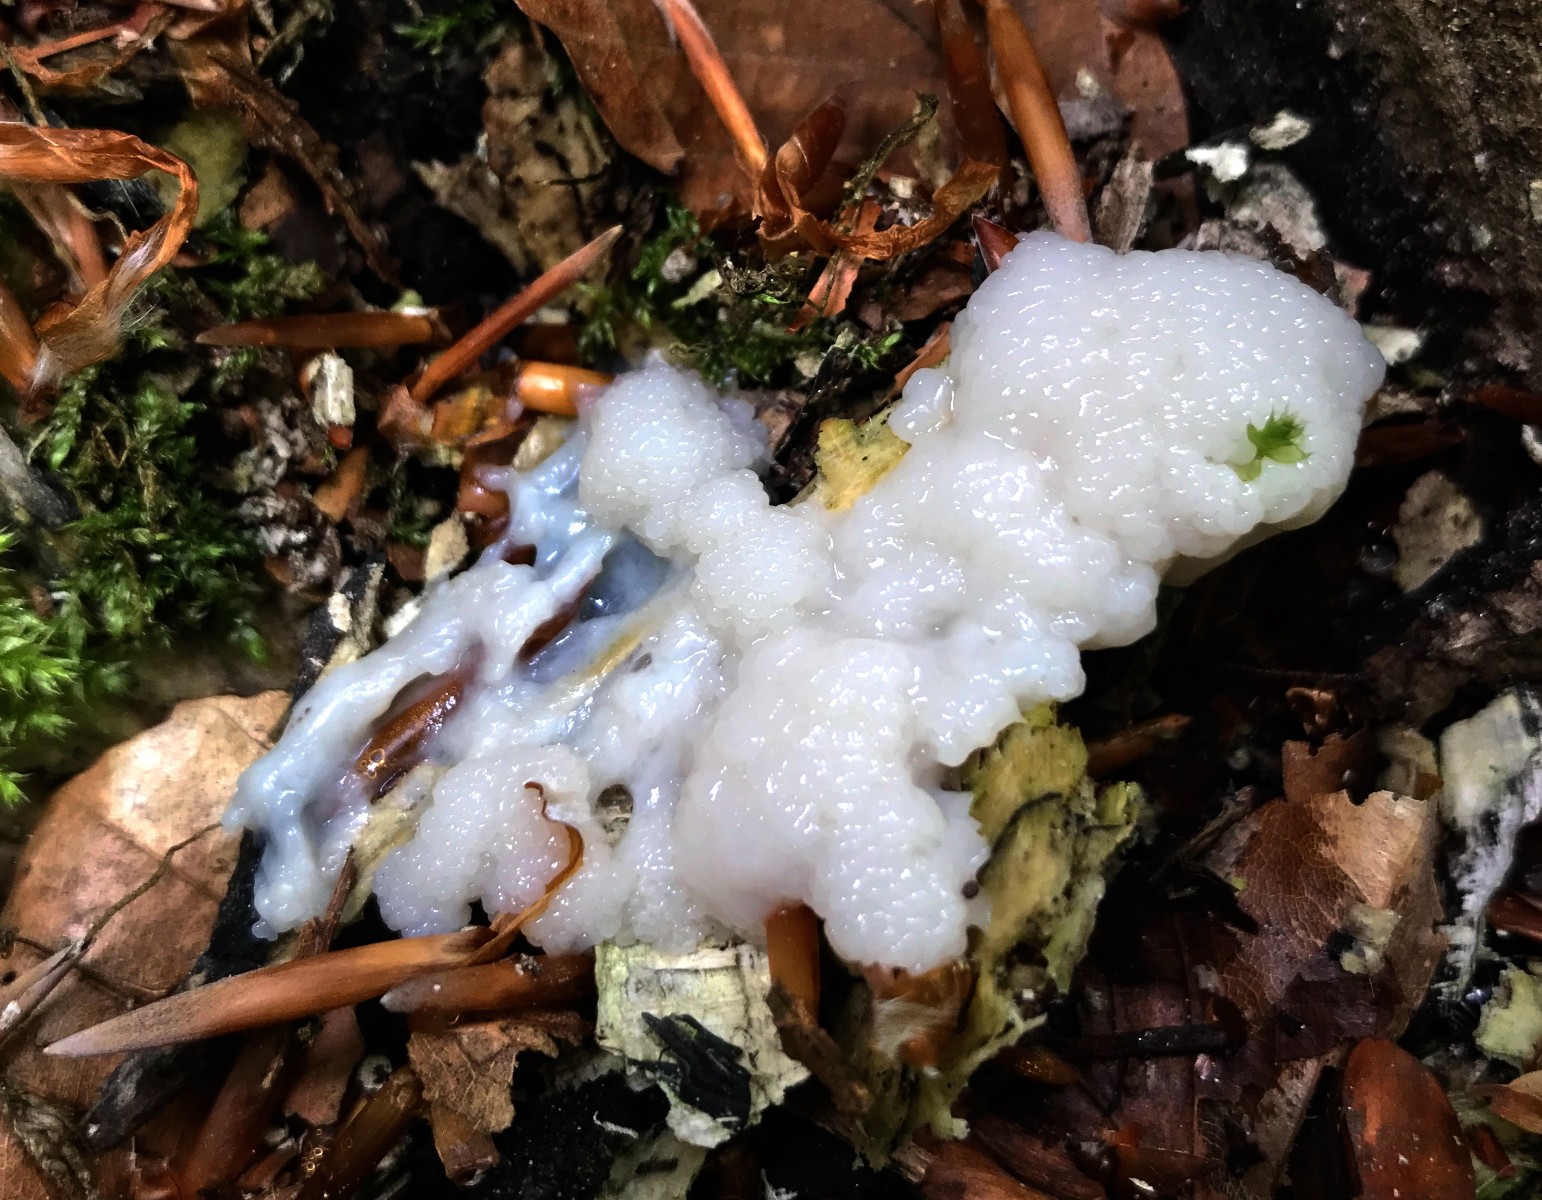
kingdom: Protozoa
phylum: Mycetozoa
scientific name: Mycetozoa
